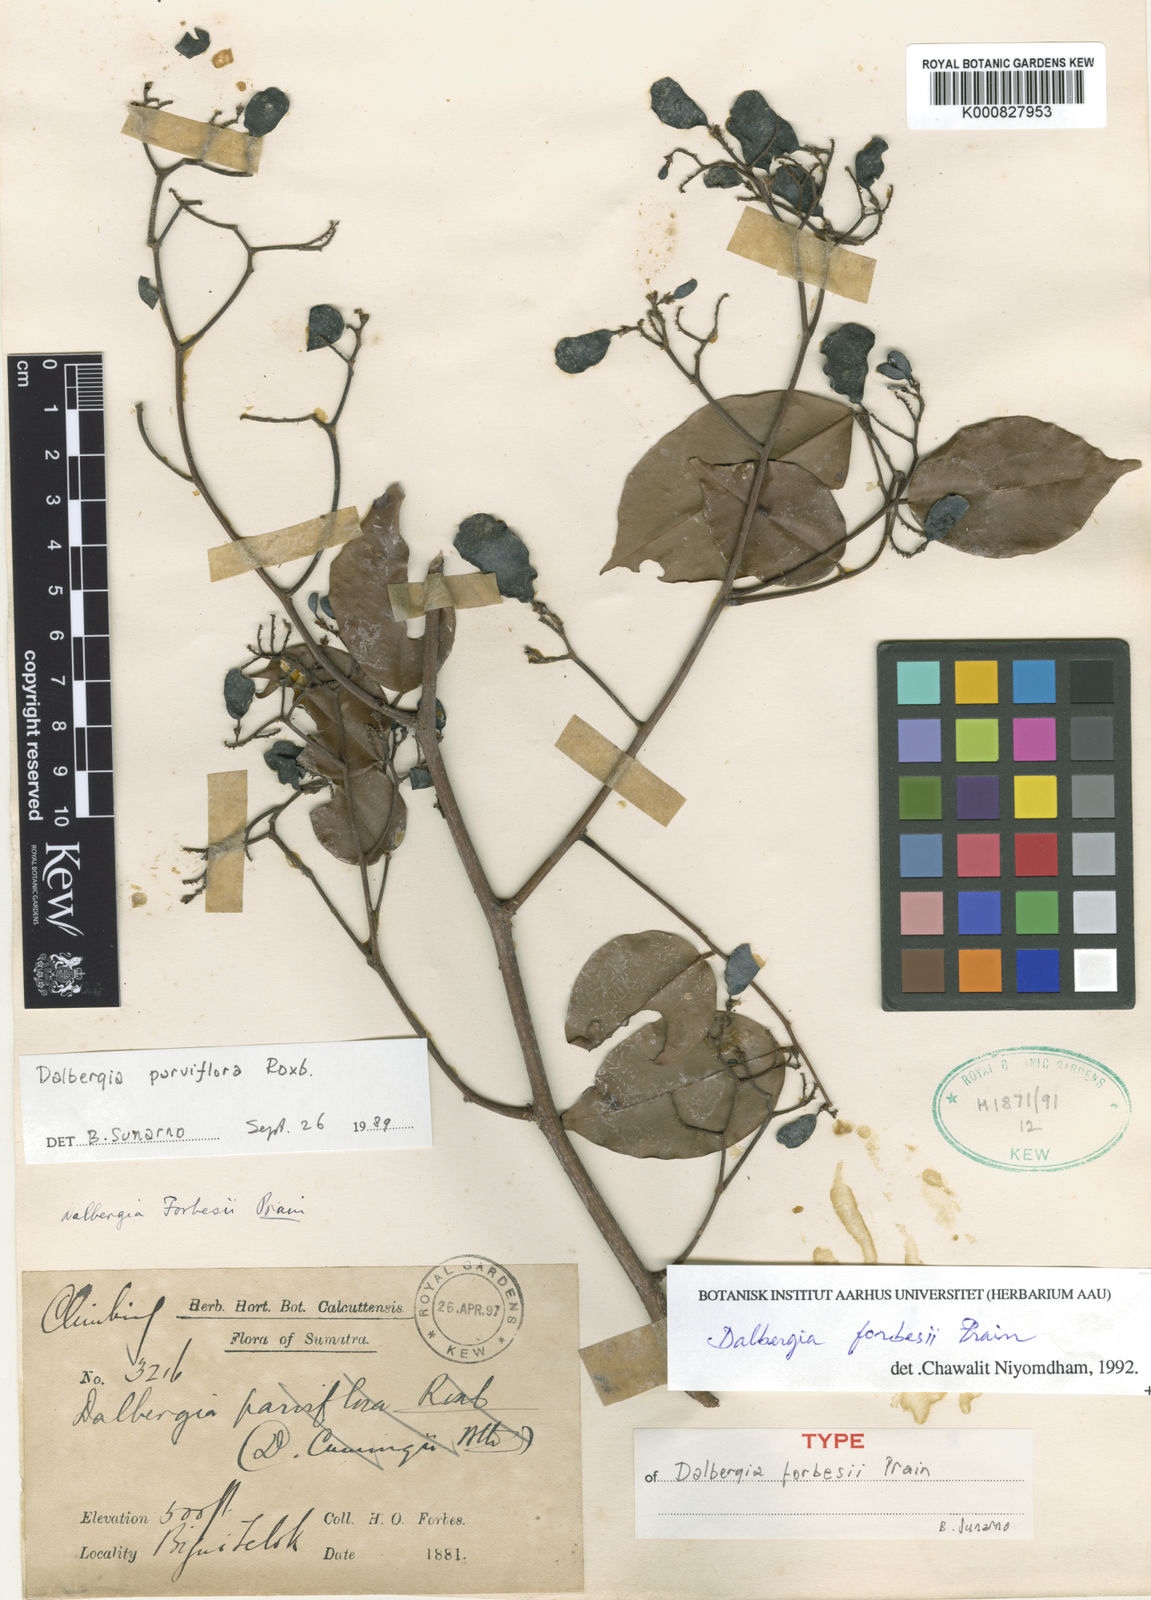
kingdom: Plantae
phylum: Tracheophyta
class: Magnoliopsida
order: Fabales
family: Fabaceae
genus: Dalbergia
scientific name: Dalbergia parviflora
